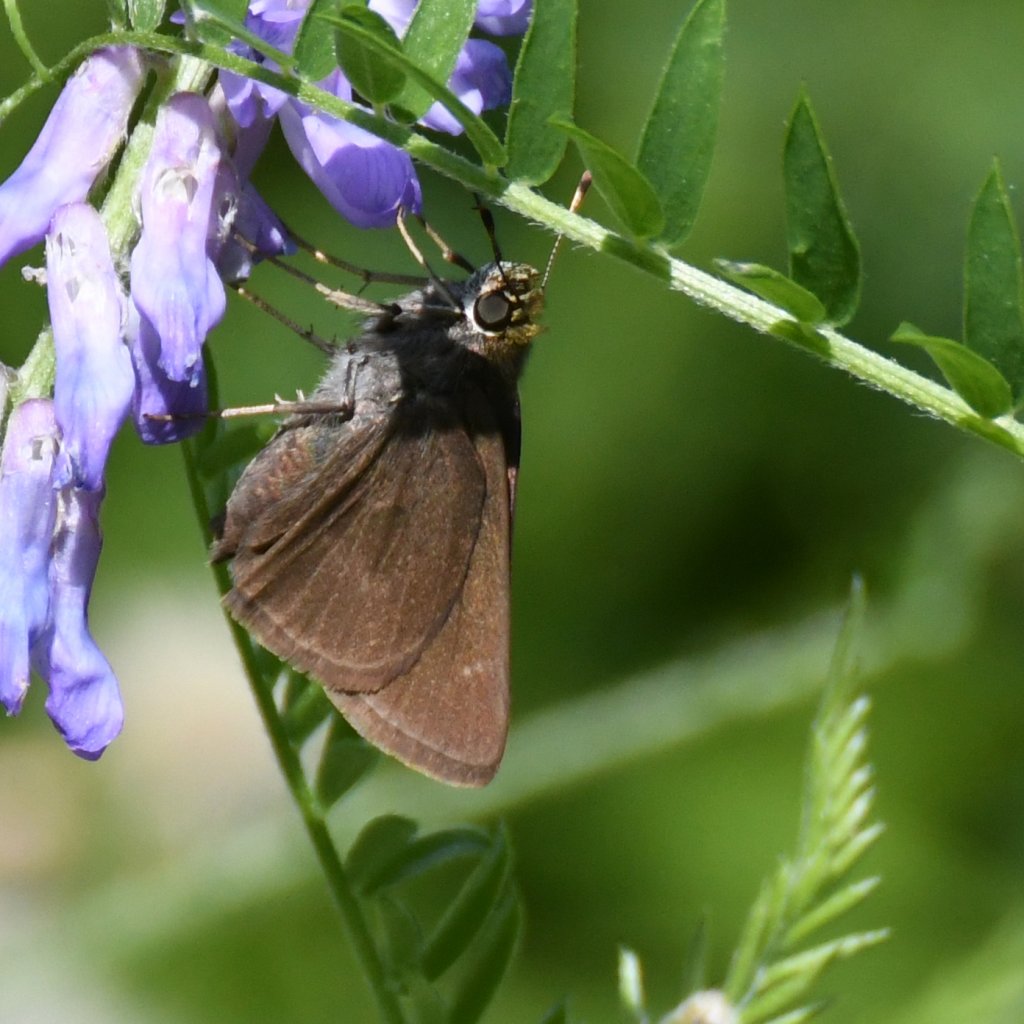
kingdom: Animalia
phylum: Arthropoda
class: Insecta
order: Lepidoptera
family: Hesperiidae
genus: Euphyes
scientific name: Euphyes vestris
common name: Dun Skipper
